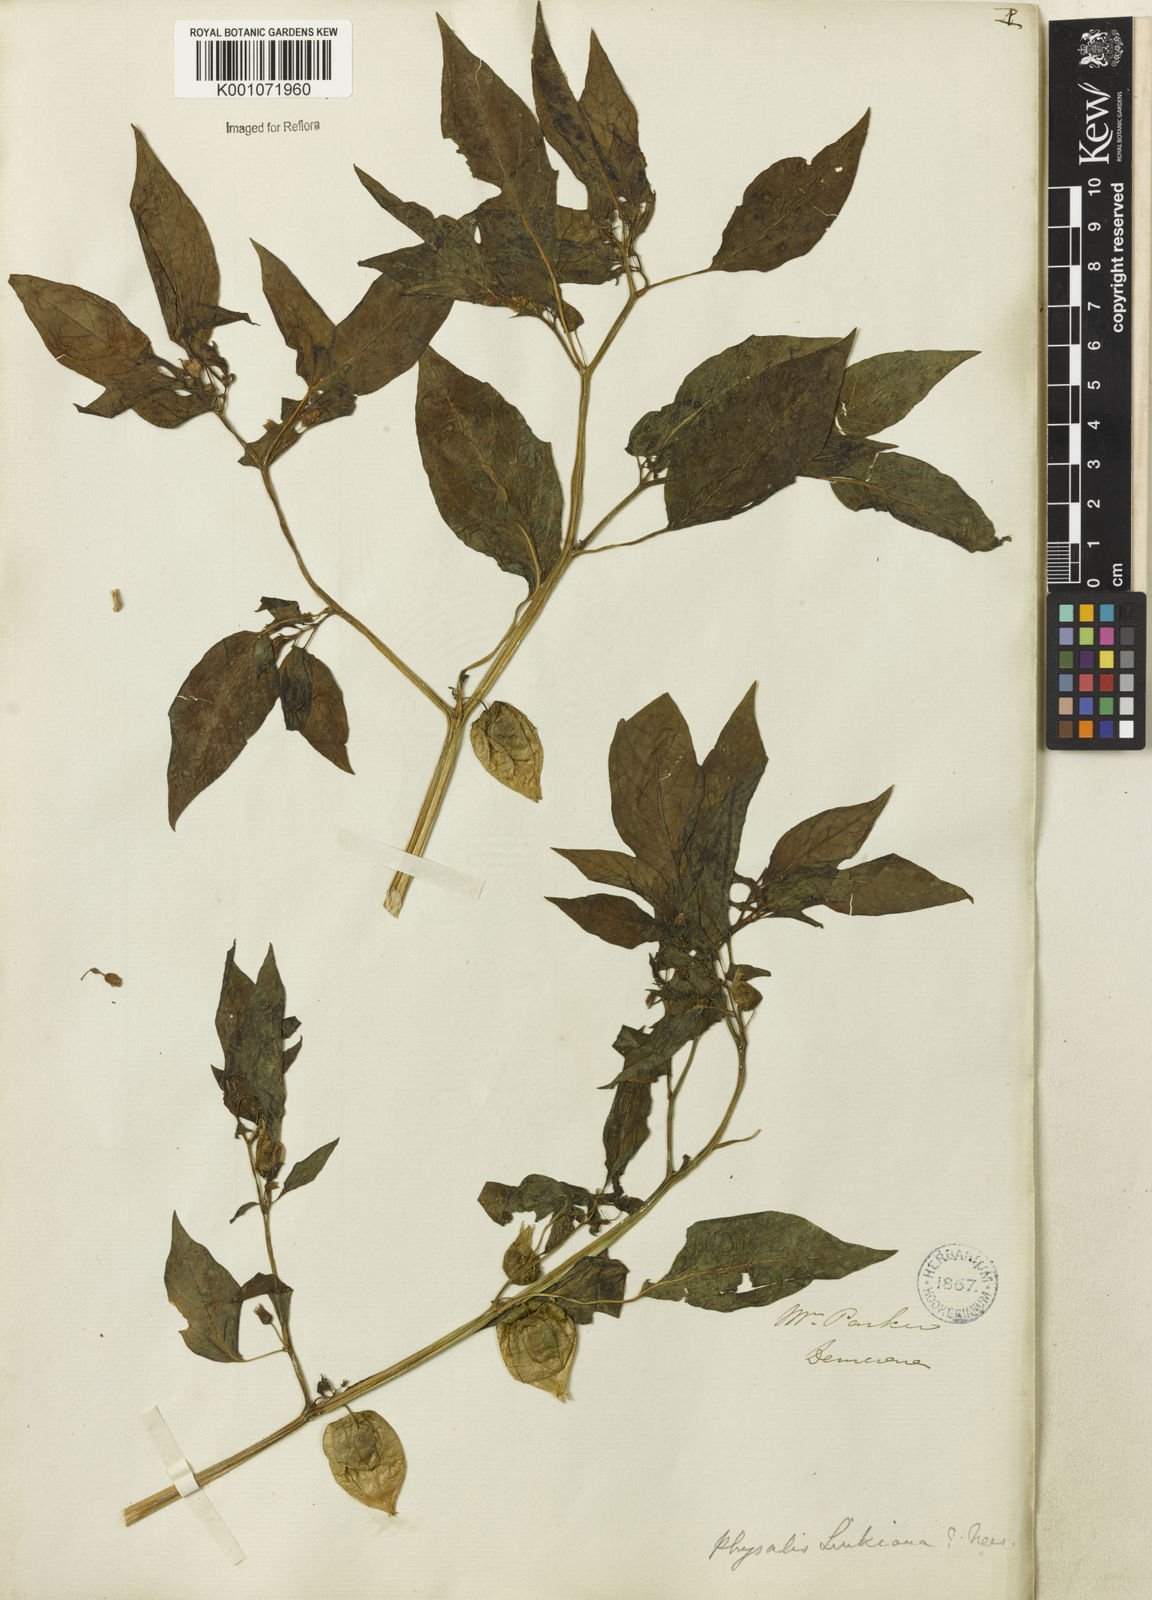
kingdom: Plantae
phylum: Tracheophyta
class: Magnoliopsida
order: Solanales
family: Solanaceae
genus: Physalis
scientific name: Physalis angulata
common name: Angular winter-cherry
